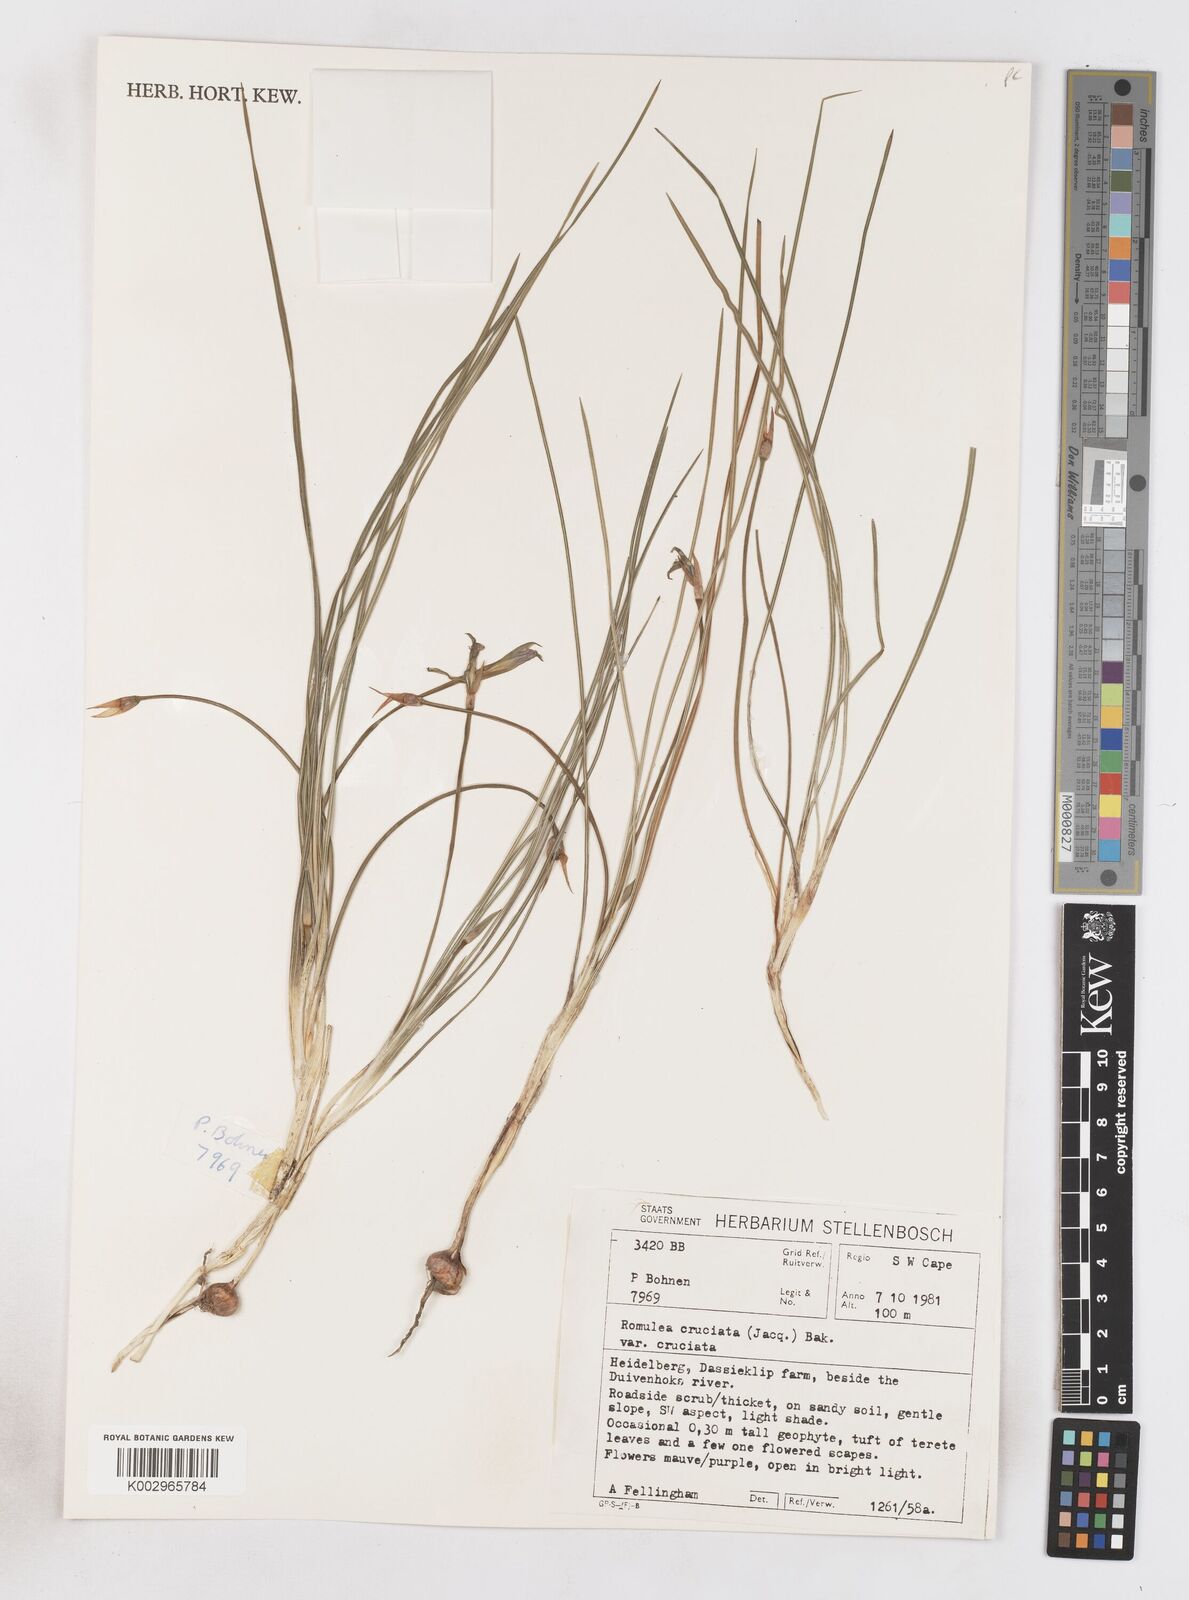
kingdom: Plantae
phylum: Tracheophyta
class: Liliopsida
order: Asparagales
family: Iridaceae
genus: Romulea
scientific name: Romulea cruciata
